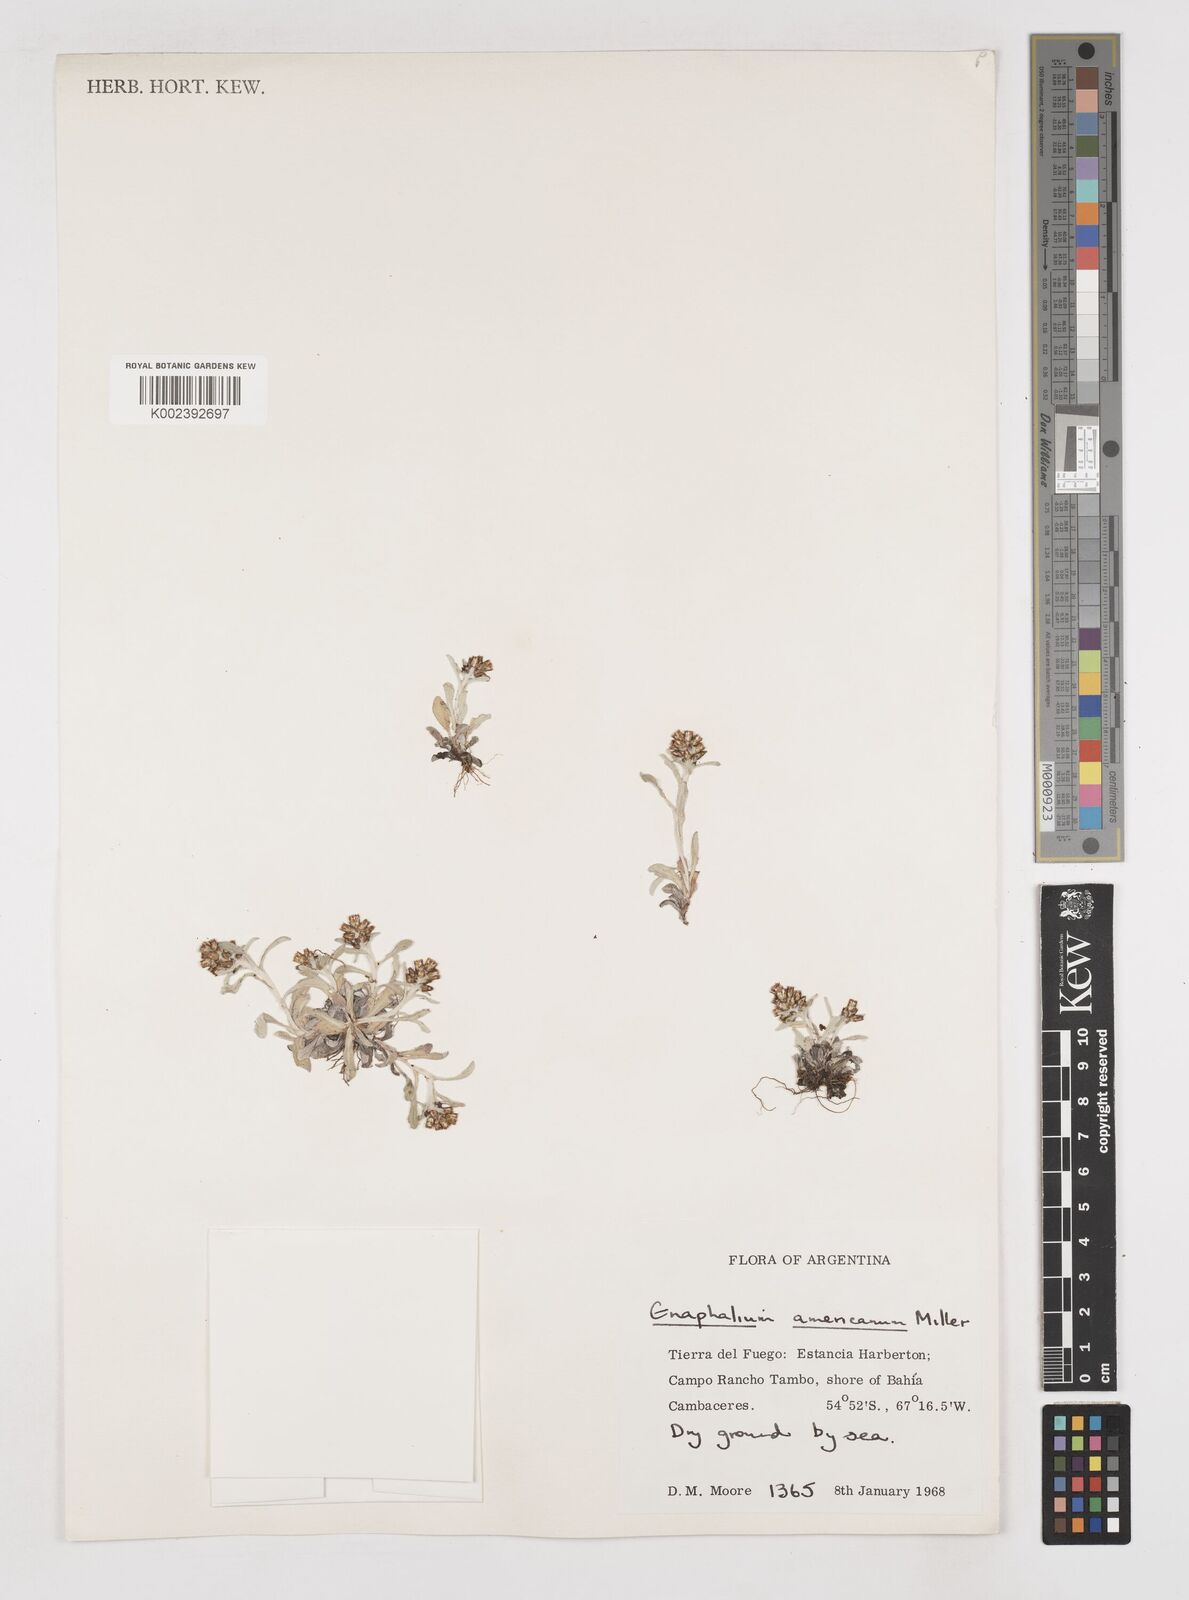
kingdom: Plantae
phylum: Tracheophyta
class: Magnoliopsida
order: Asterales
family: Asteraceae
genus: Anaphalis
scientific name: Anaphalis margaritacea
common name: Pearly everlasting
